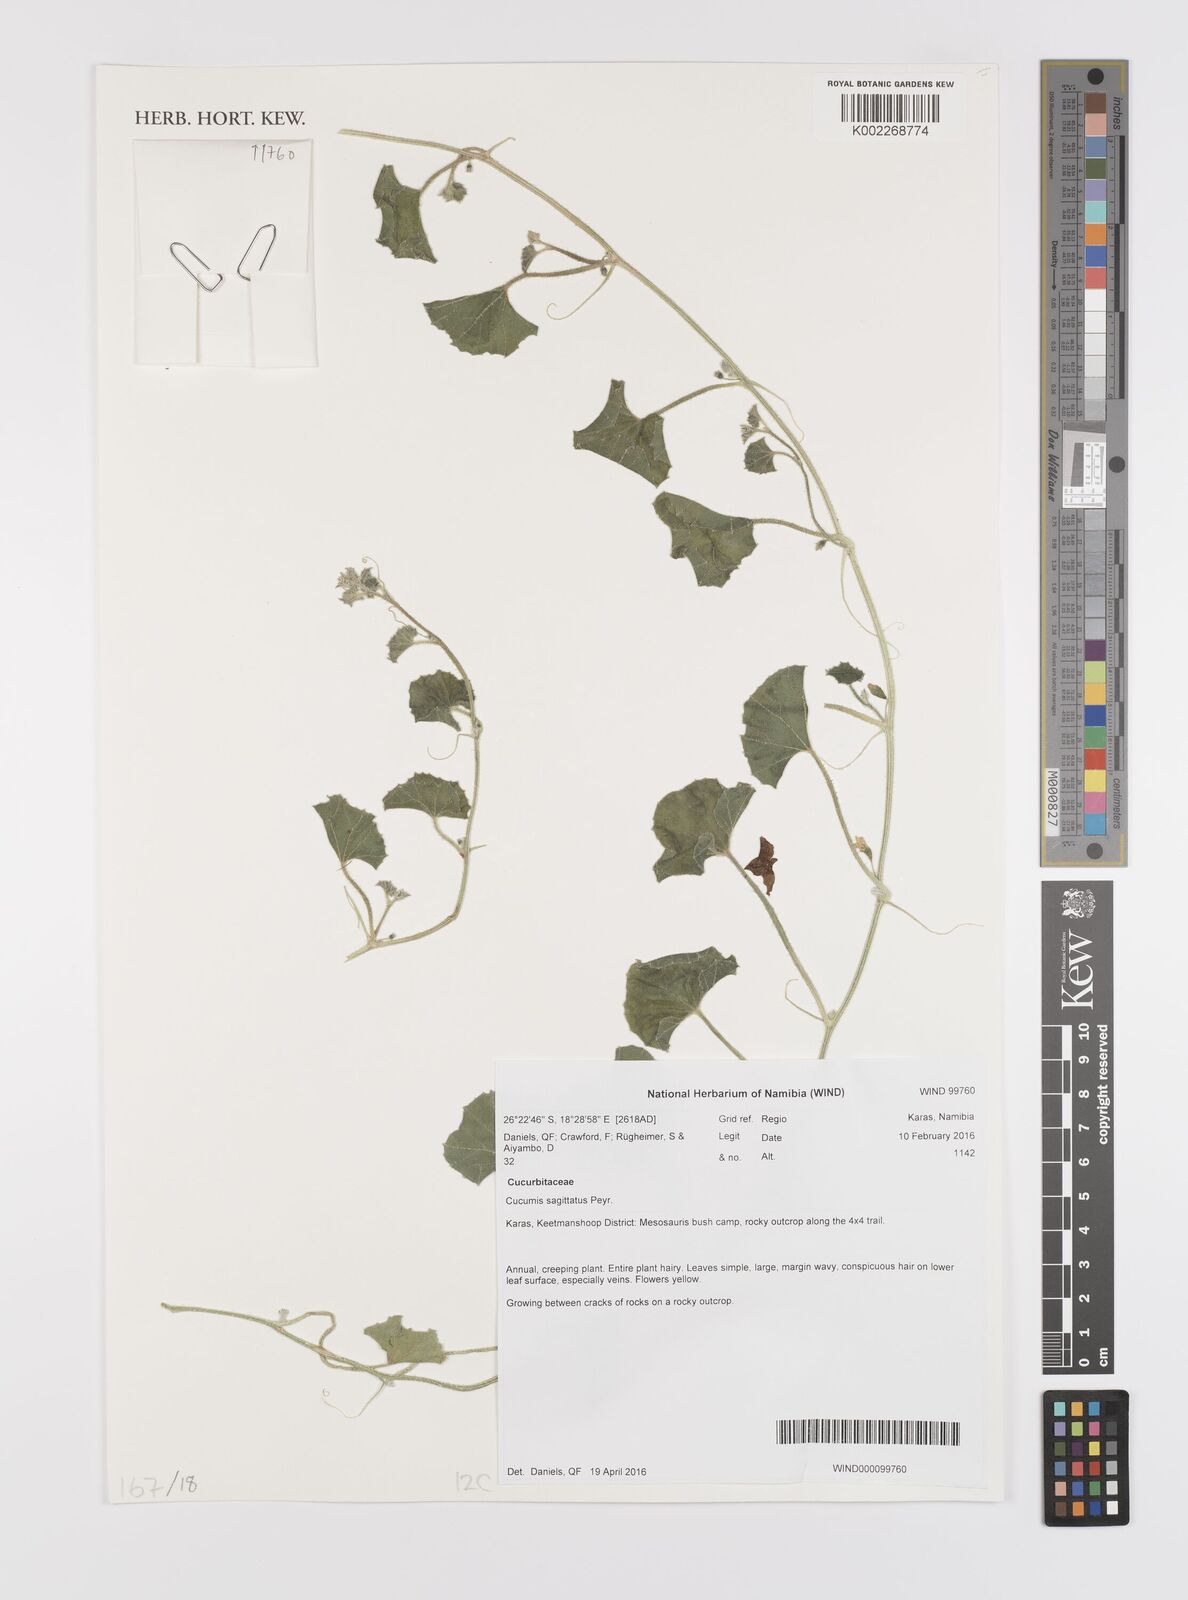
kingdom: Plantae
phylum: Tracheophyta
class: Magnoliopsida
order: Cucurbitales
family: Cucurbitaceae
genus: Cucumis
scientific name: Cucumis sagittatus
